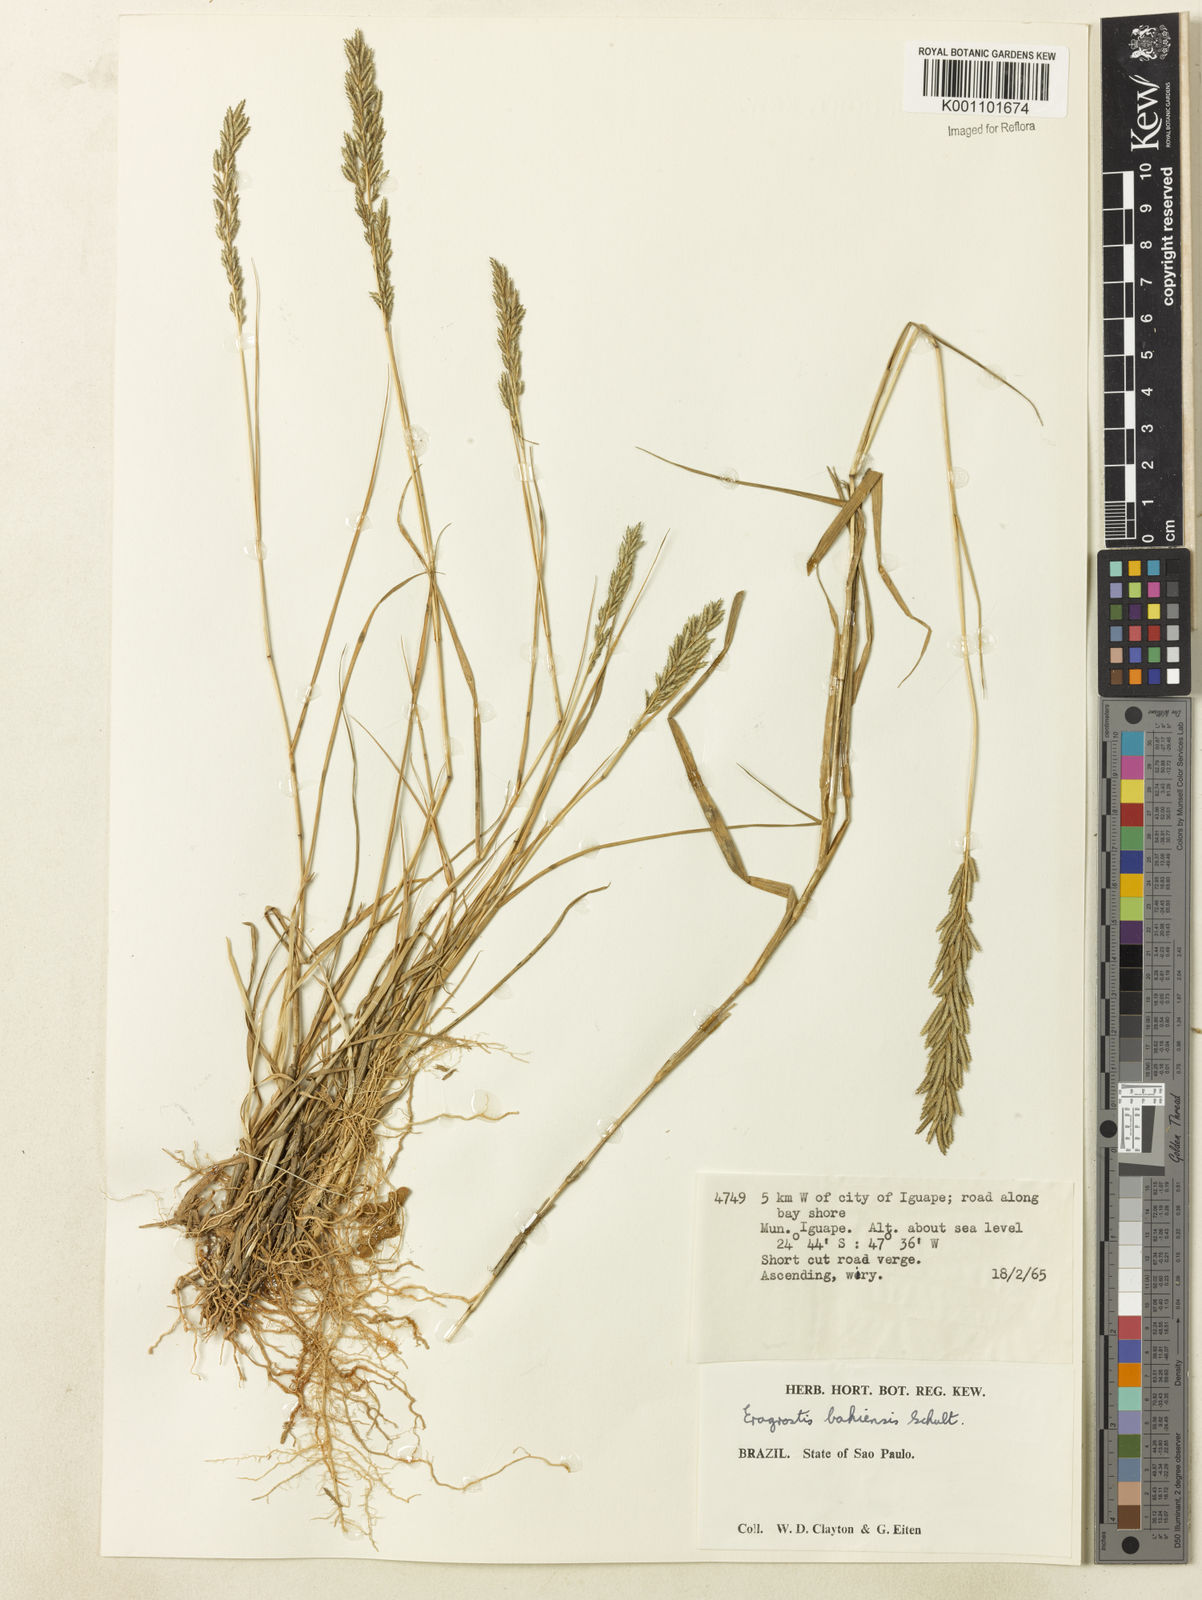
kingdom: Plantae
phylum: Tracheophyta
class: Liliopsida
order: Poales
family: Poaceae
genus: Eragrostis
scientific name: Eragrostis cataclasta
